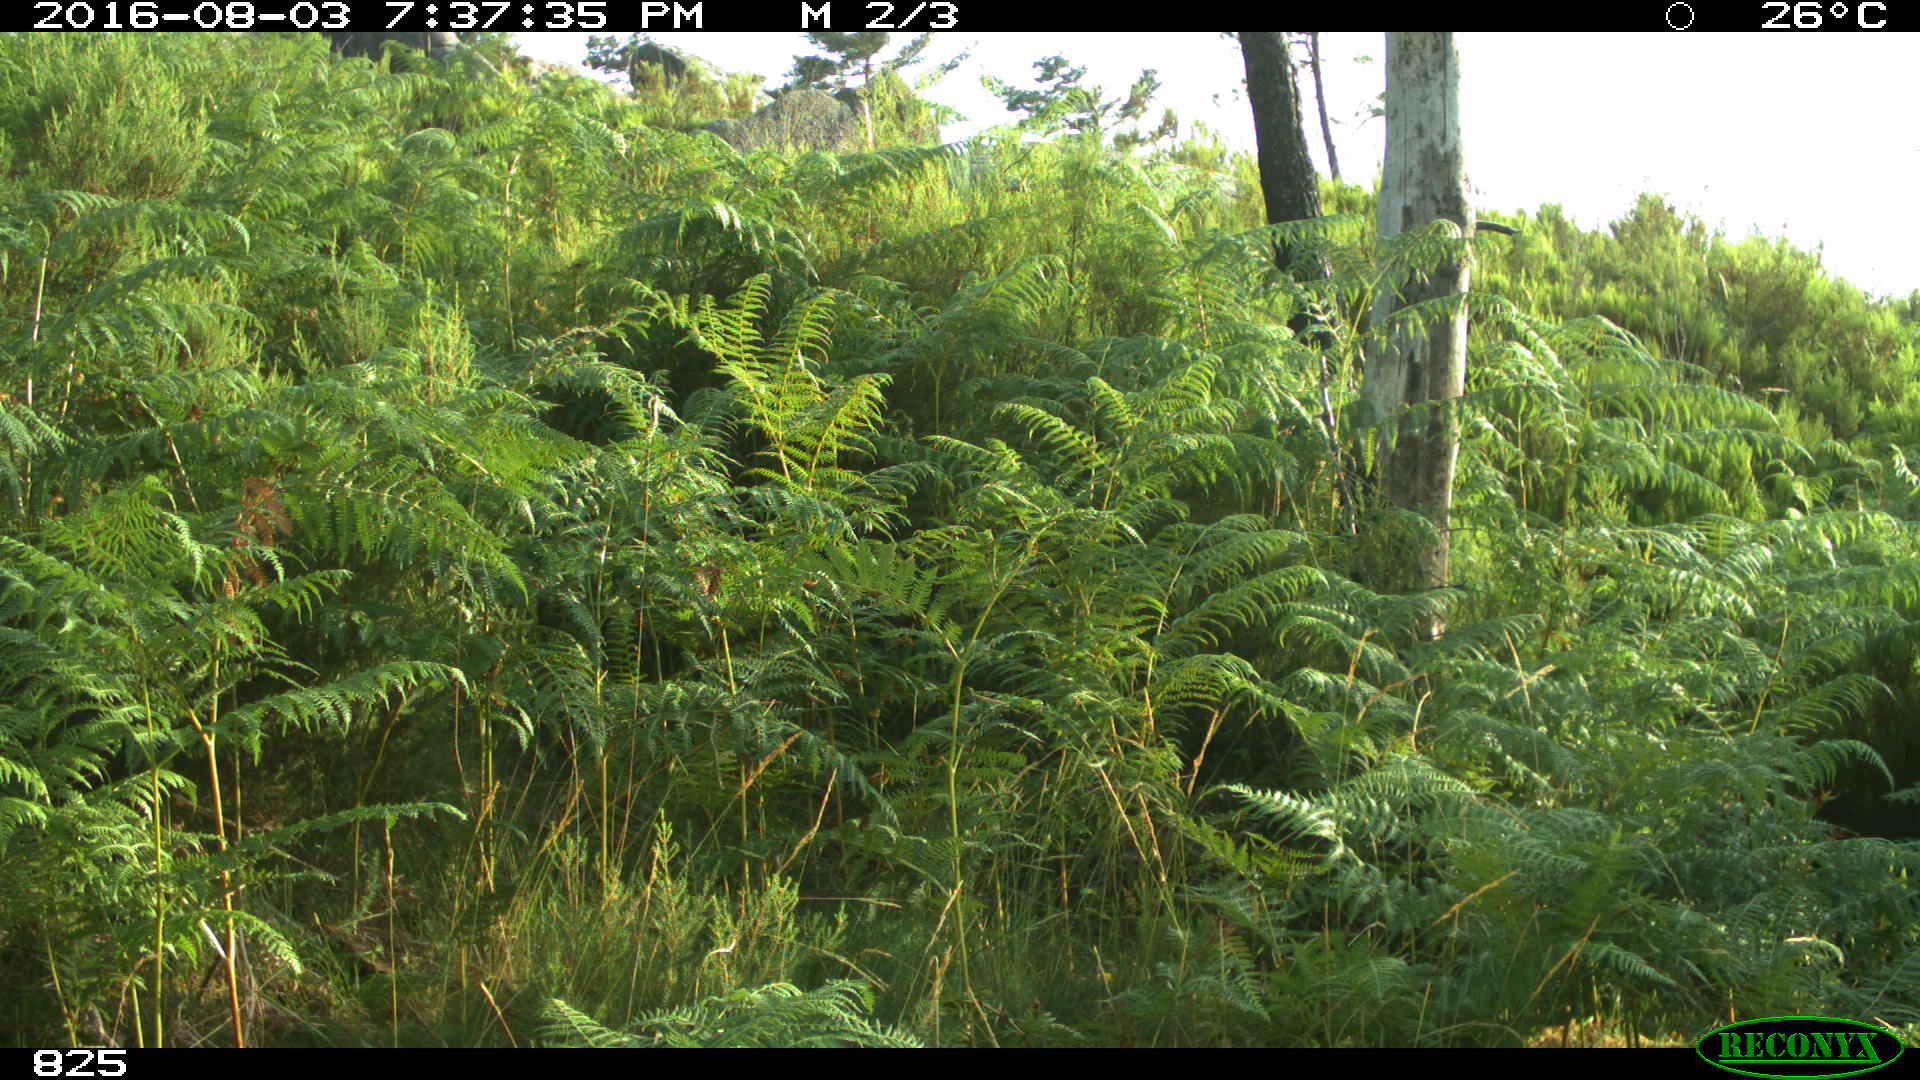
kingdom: Animalia
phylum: Chordata
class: Mammalia
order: Artiodactyla
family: Bovidae
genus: Bos
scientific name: Bos taurus
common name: Domesticated cattle
